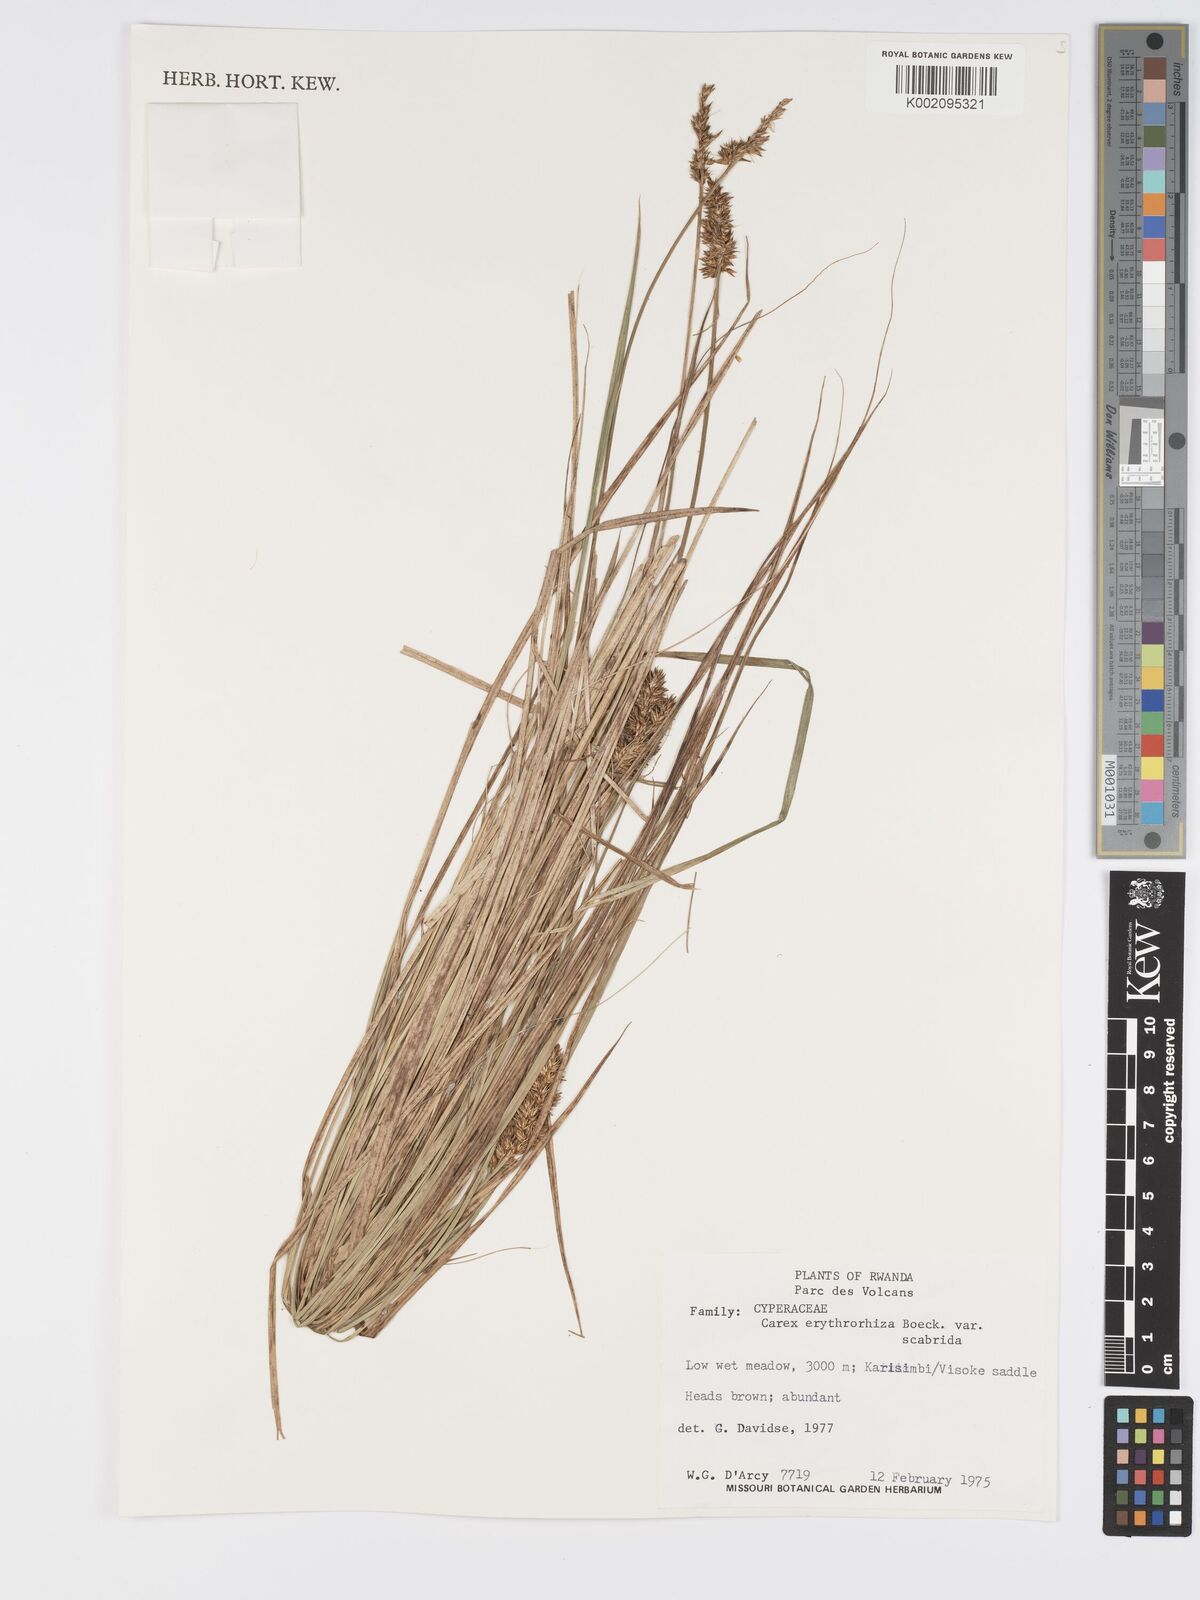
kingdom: Plantae
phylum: Tracheophyta
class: Liliopsida
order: Poales
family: Cyperaceae
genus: Carex
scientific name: Carex lycurus
